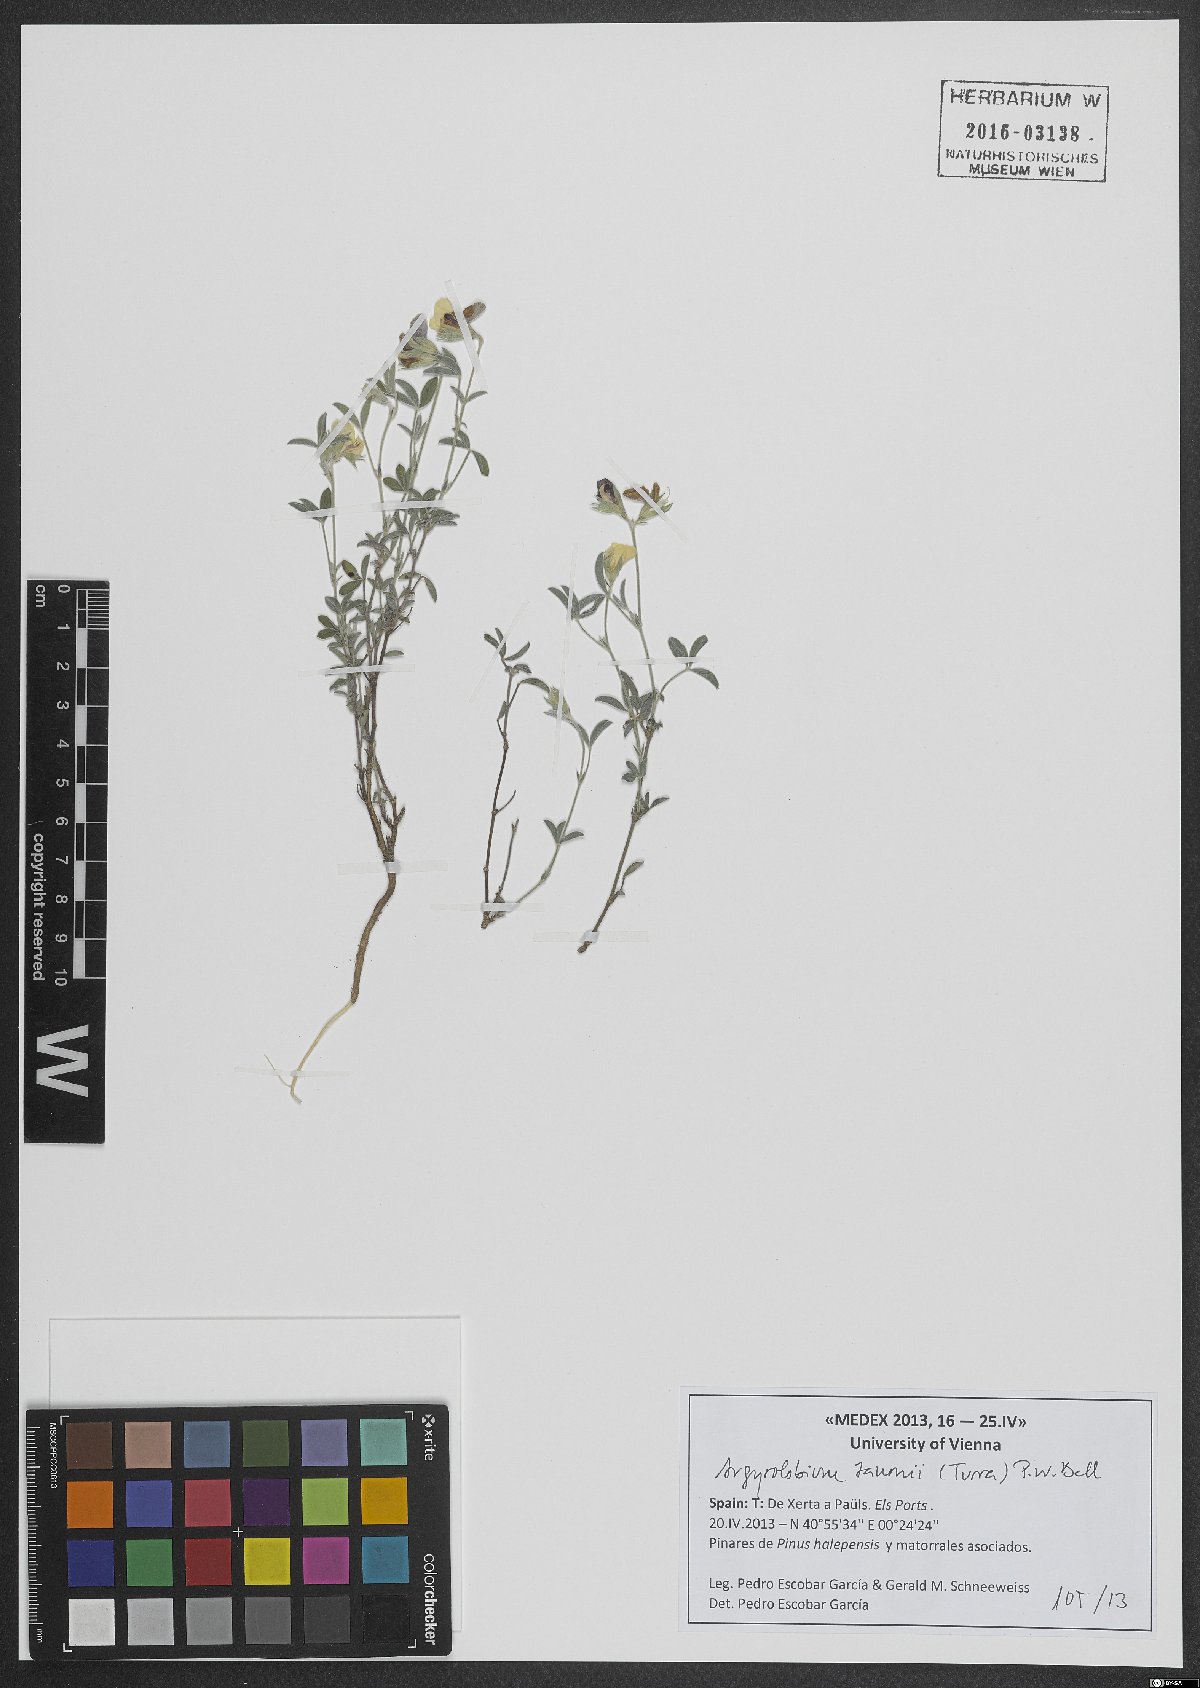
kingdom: Plantae
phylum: Tracheophyta
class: Magnoliopsida
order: Fabales
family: Fabaceae
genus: Argyrolobium
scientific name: Argyrolobium zanonii
